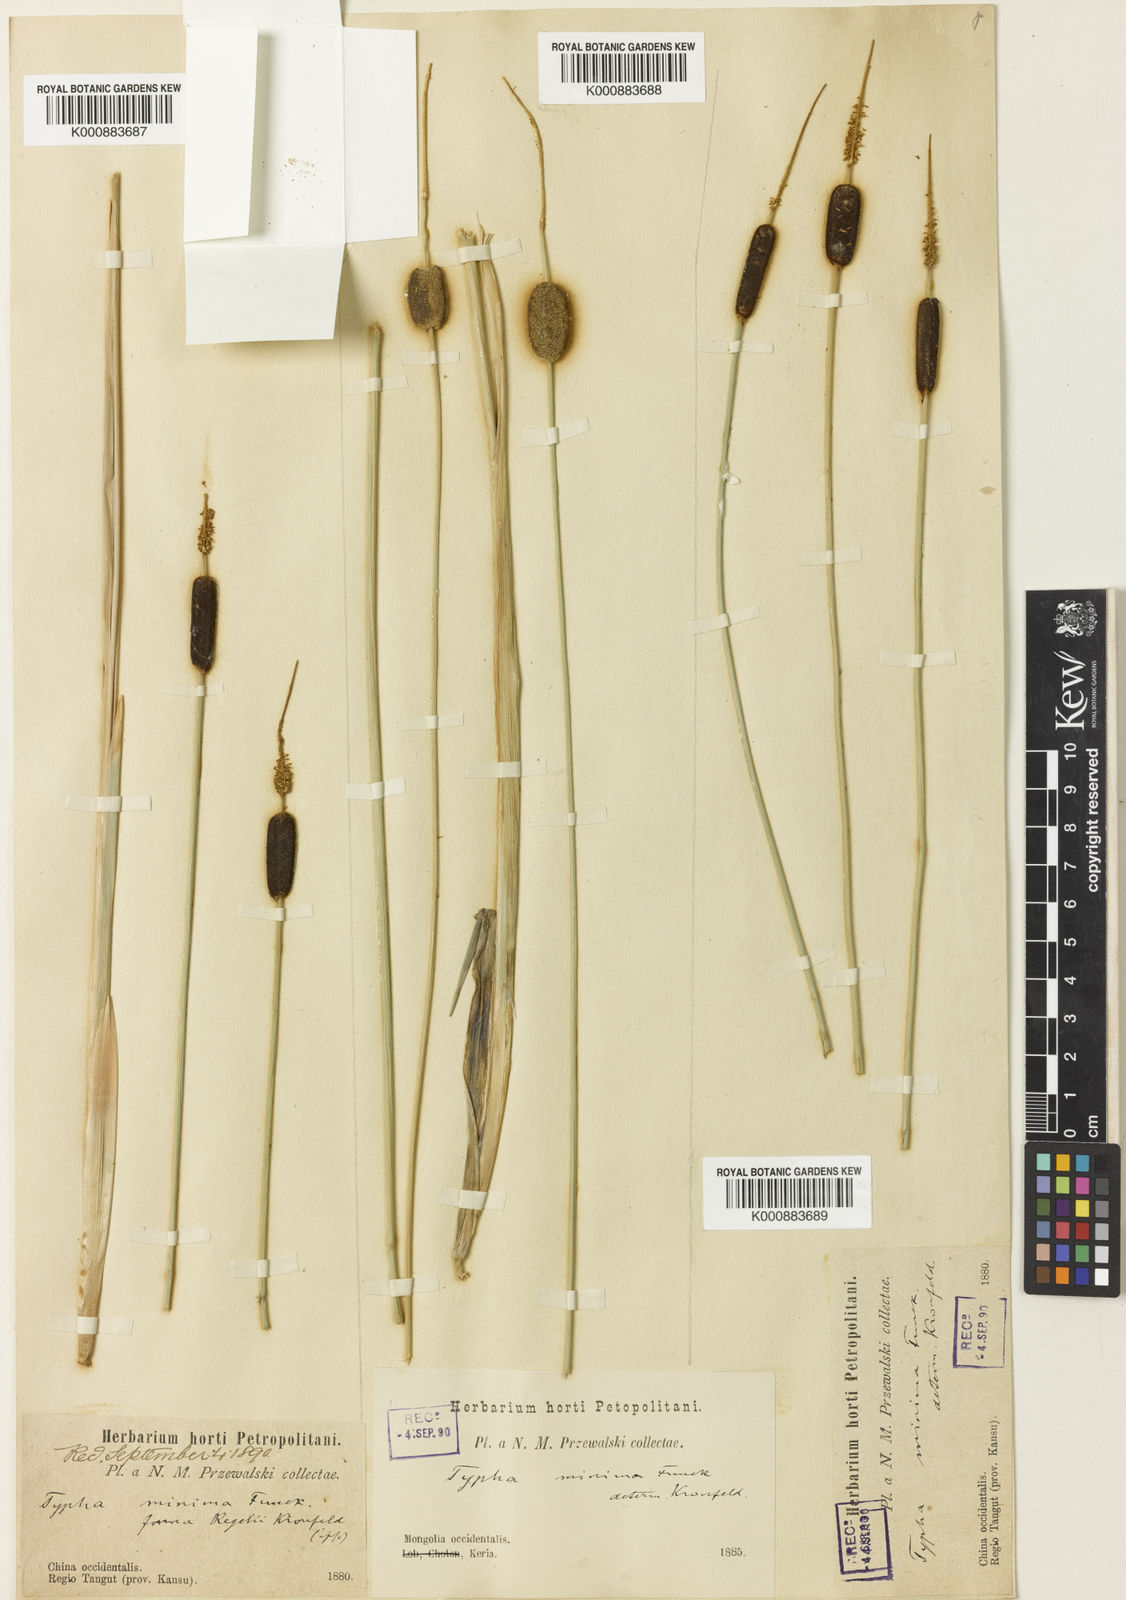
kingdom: Plantae
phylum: Tracheophyta
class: Liliopsida
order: Poales
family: Typhaceae
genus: Typha
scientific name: Typha
